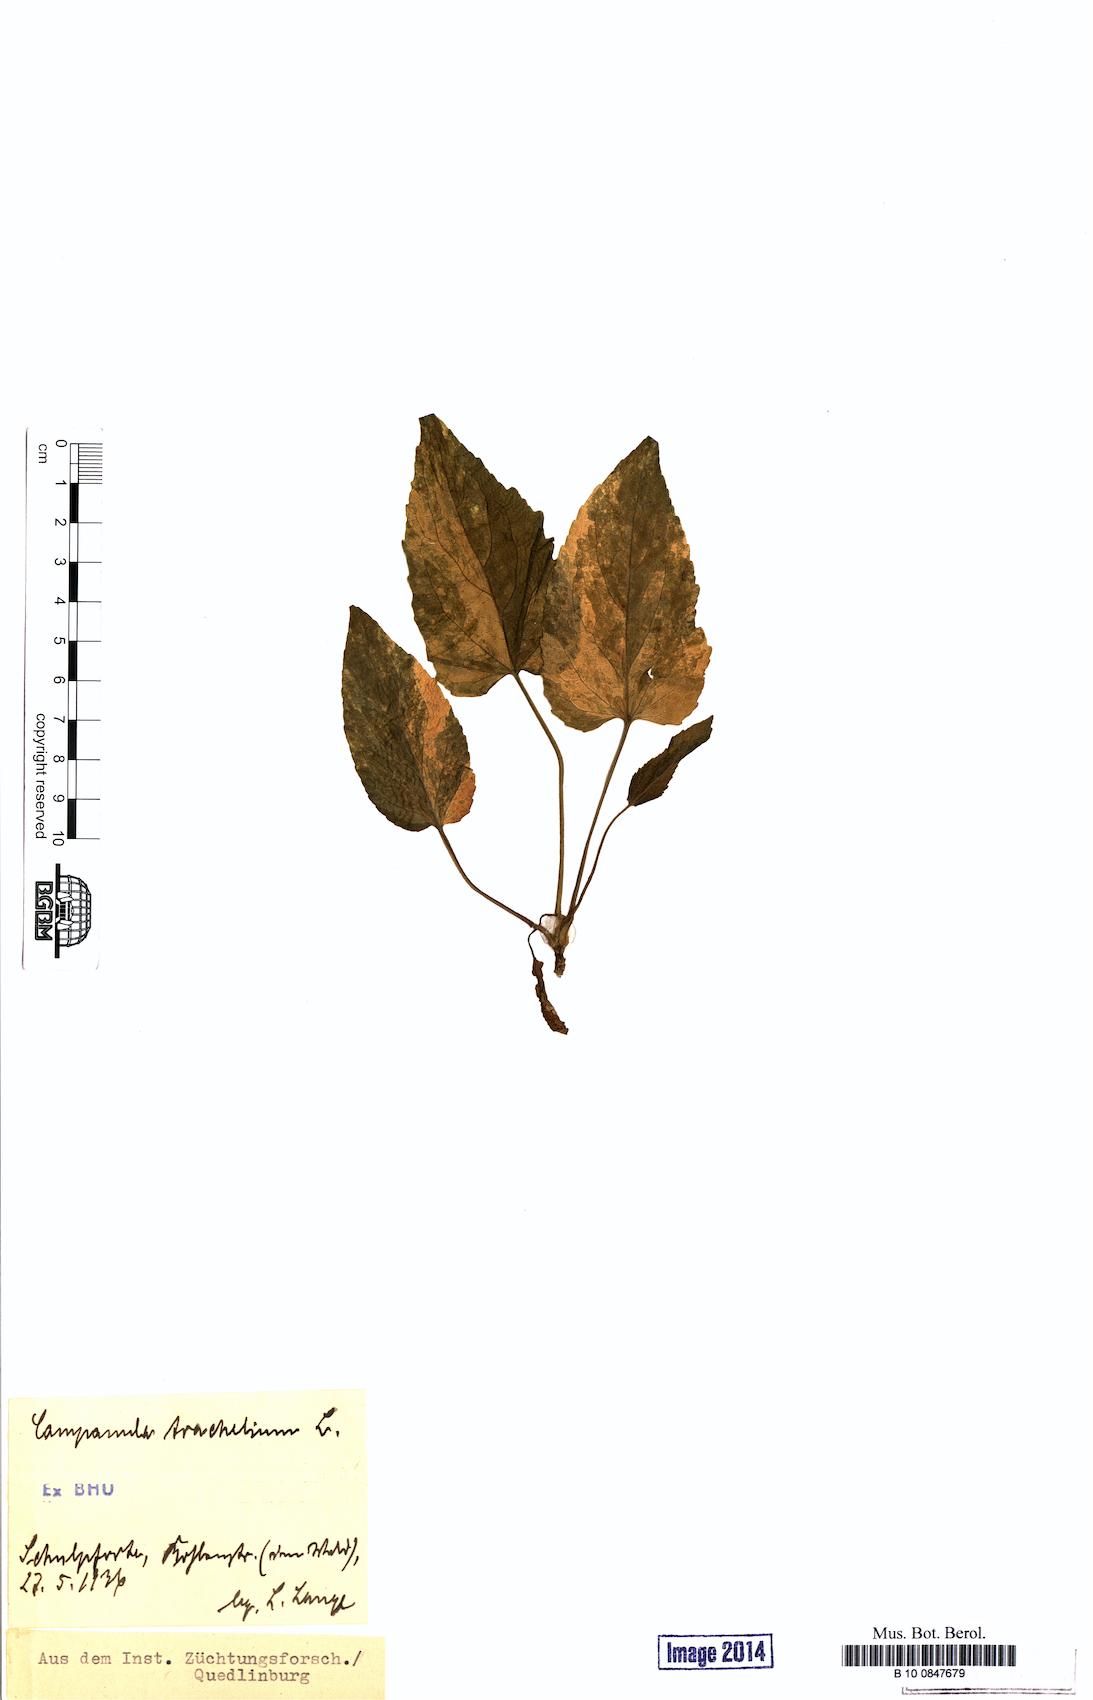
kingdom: Plantae
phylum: Tracheophyta
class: Magnoliopsida
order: Asterales
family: Campanulaceae
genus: Campanula
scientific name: Campanula trachelium
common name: Nettle-leaved bellflower
